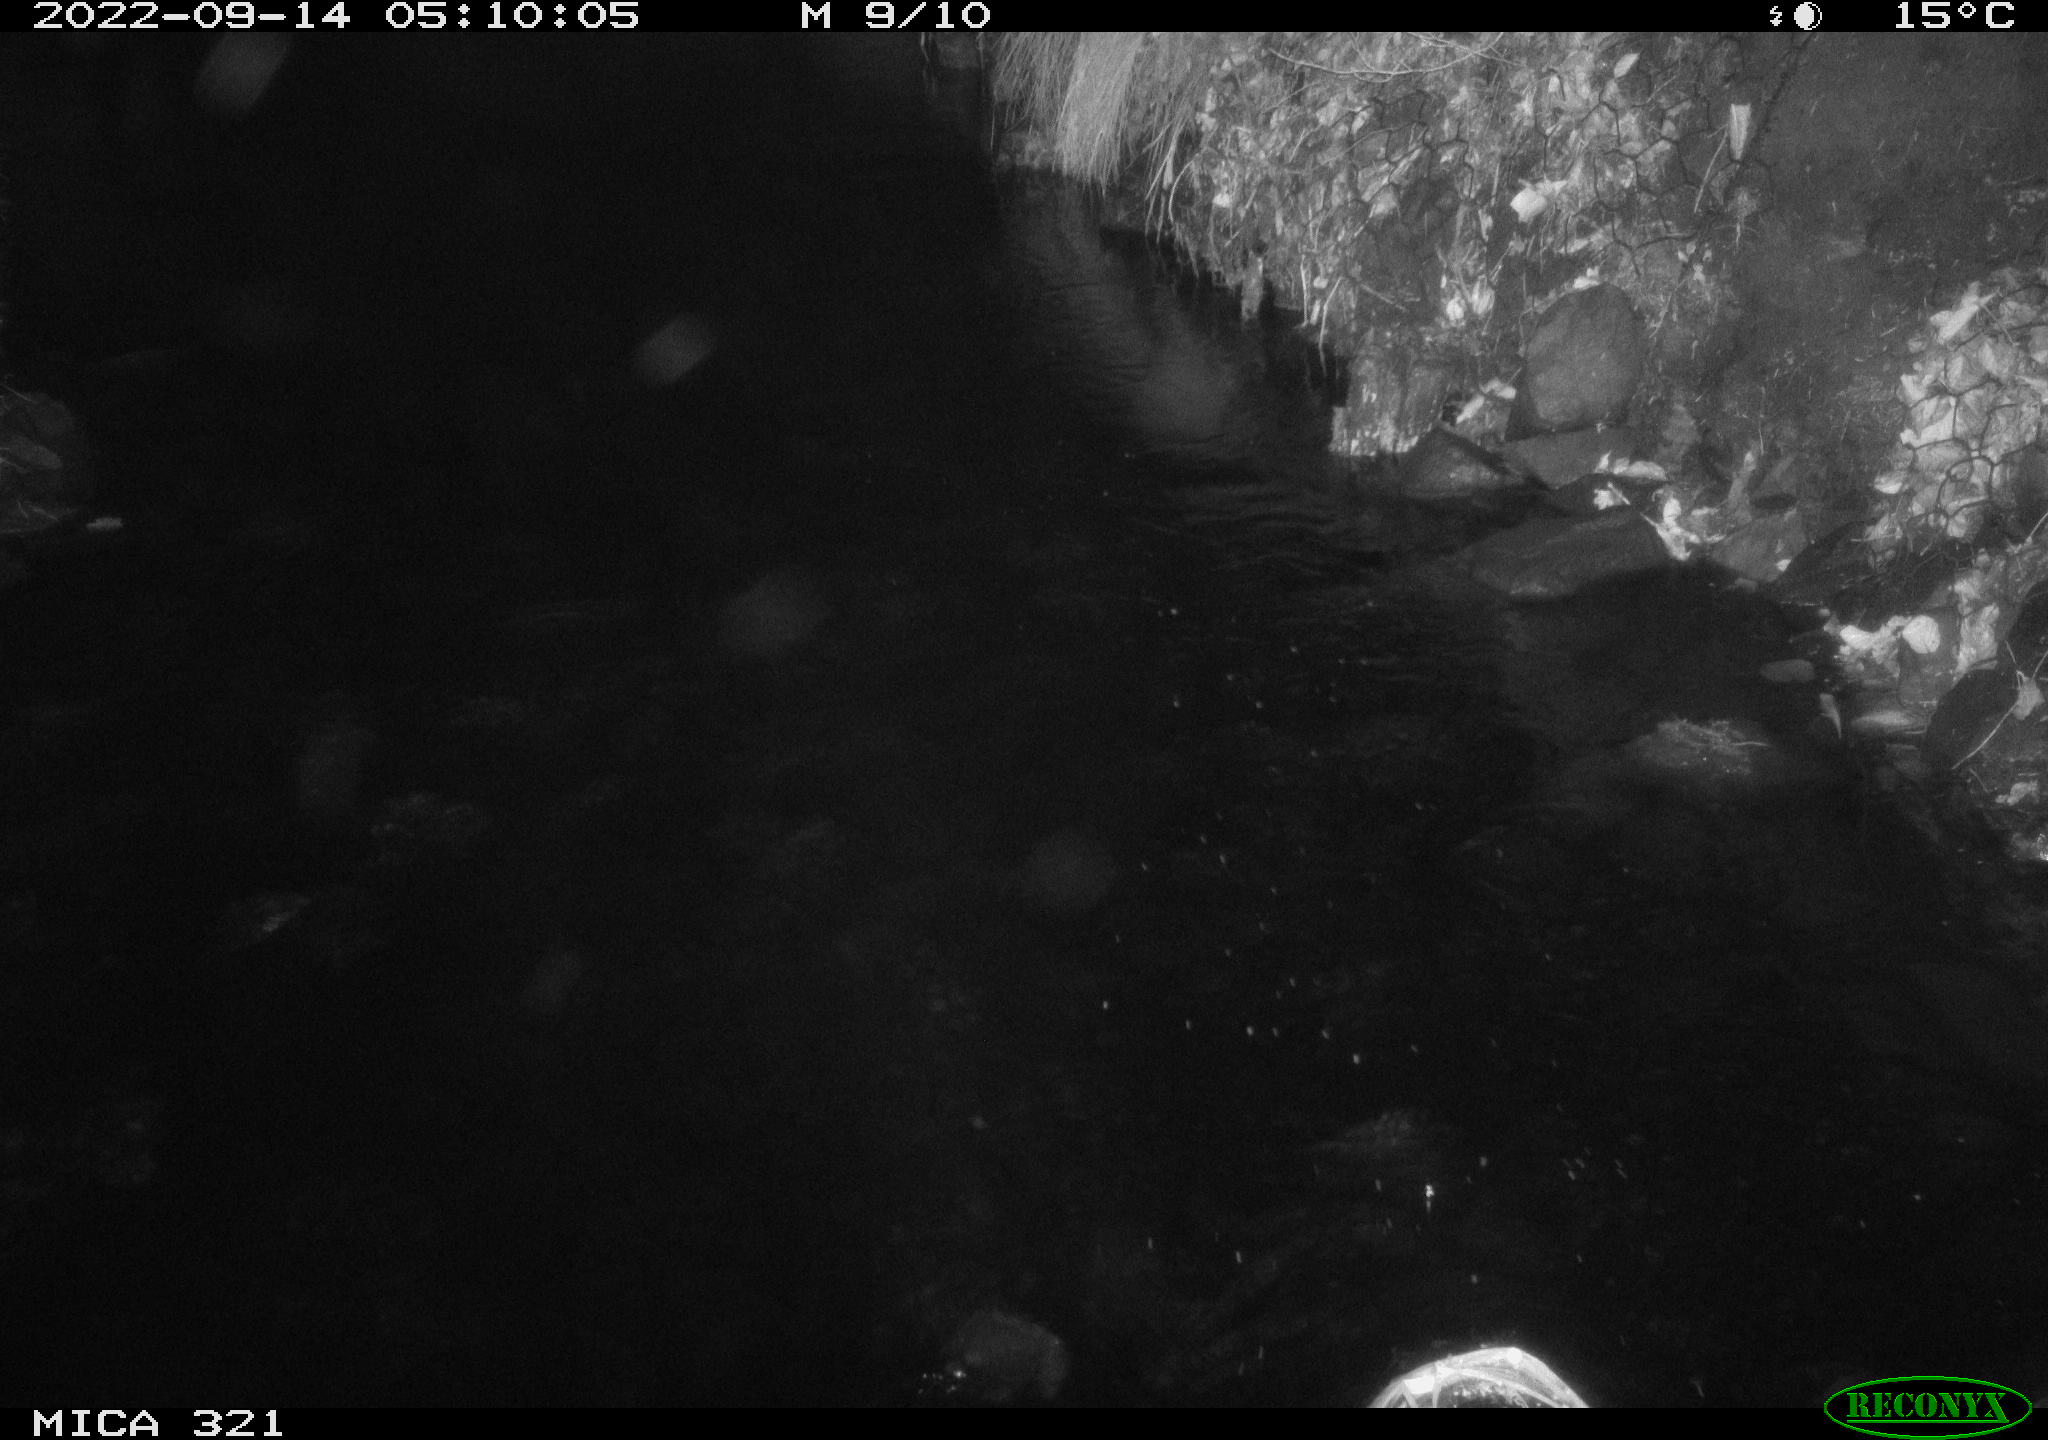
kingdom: Animalia
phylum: Chordata
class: Mammalia
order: Rodentia
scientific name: Rodentia
